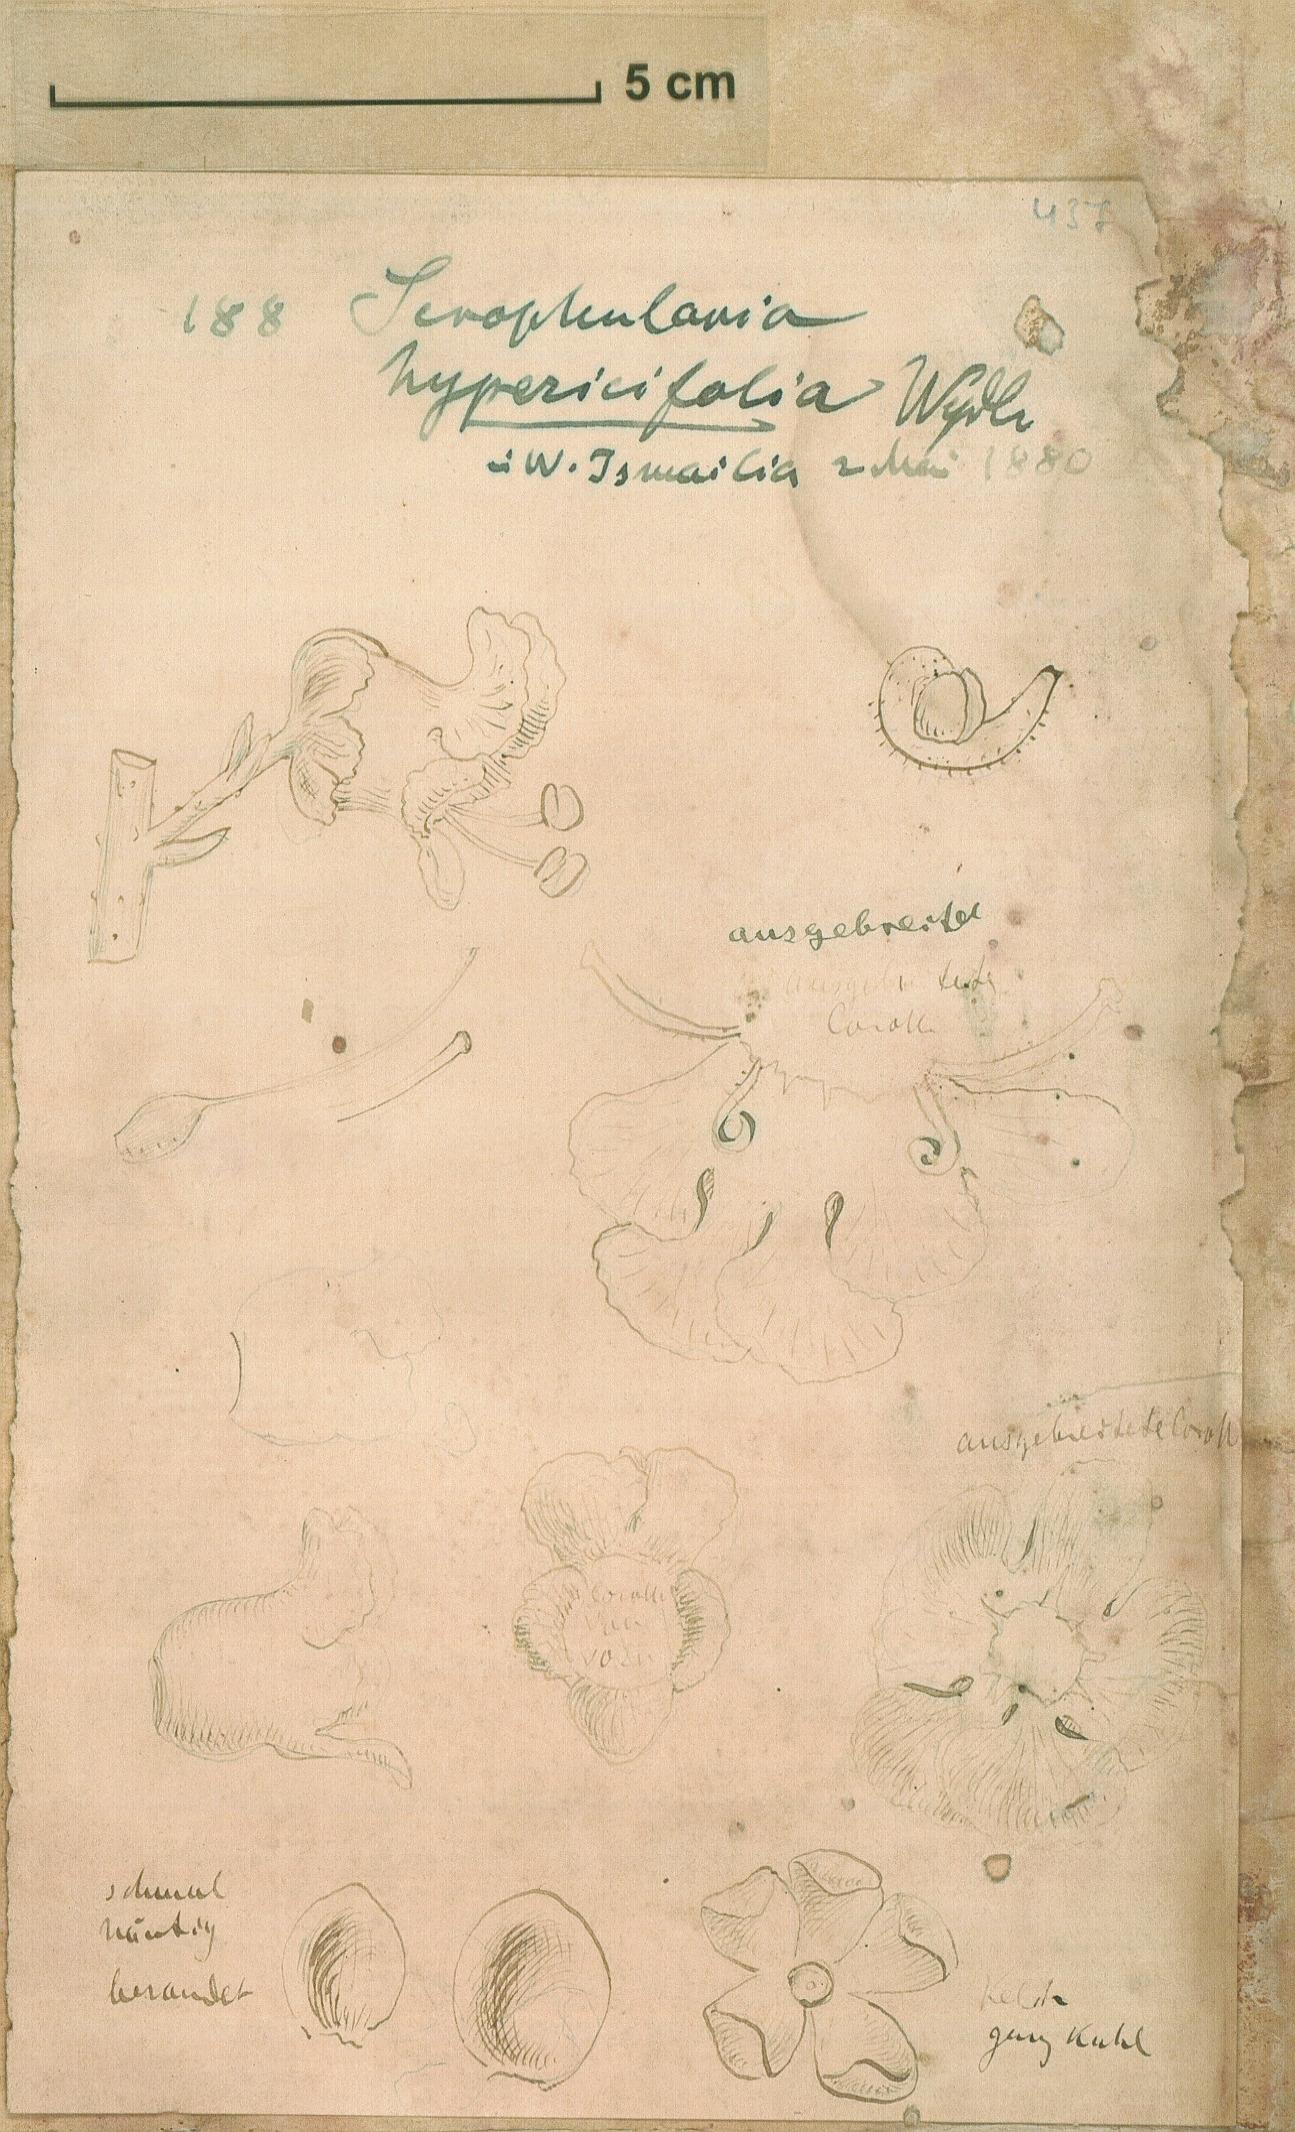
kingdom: Plantae
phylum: Tracheophyta
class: Magnoliopsida
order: Lamiales
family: Scrophulariaceae
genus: Scrophularia
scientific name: Scrophularia hypericifolia
